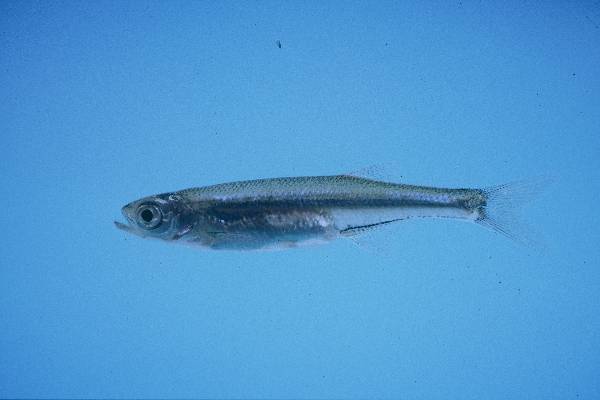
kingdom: Animalia
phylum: Chordata
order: Cypriniformes
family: Cyprinidae
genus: Engraulicypris
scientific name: Engraulicypris brevianalis
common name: River sardine
